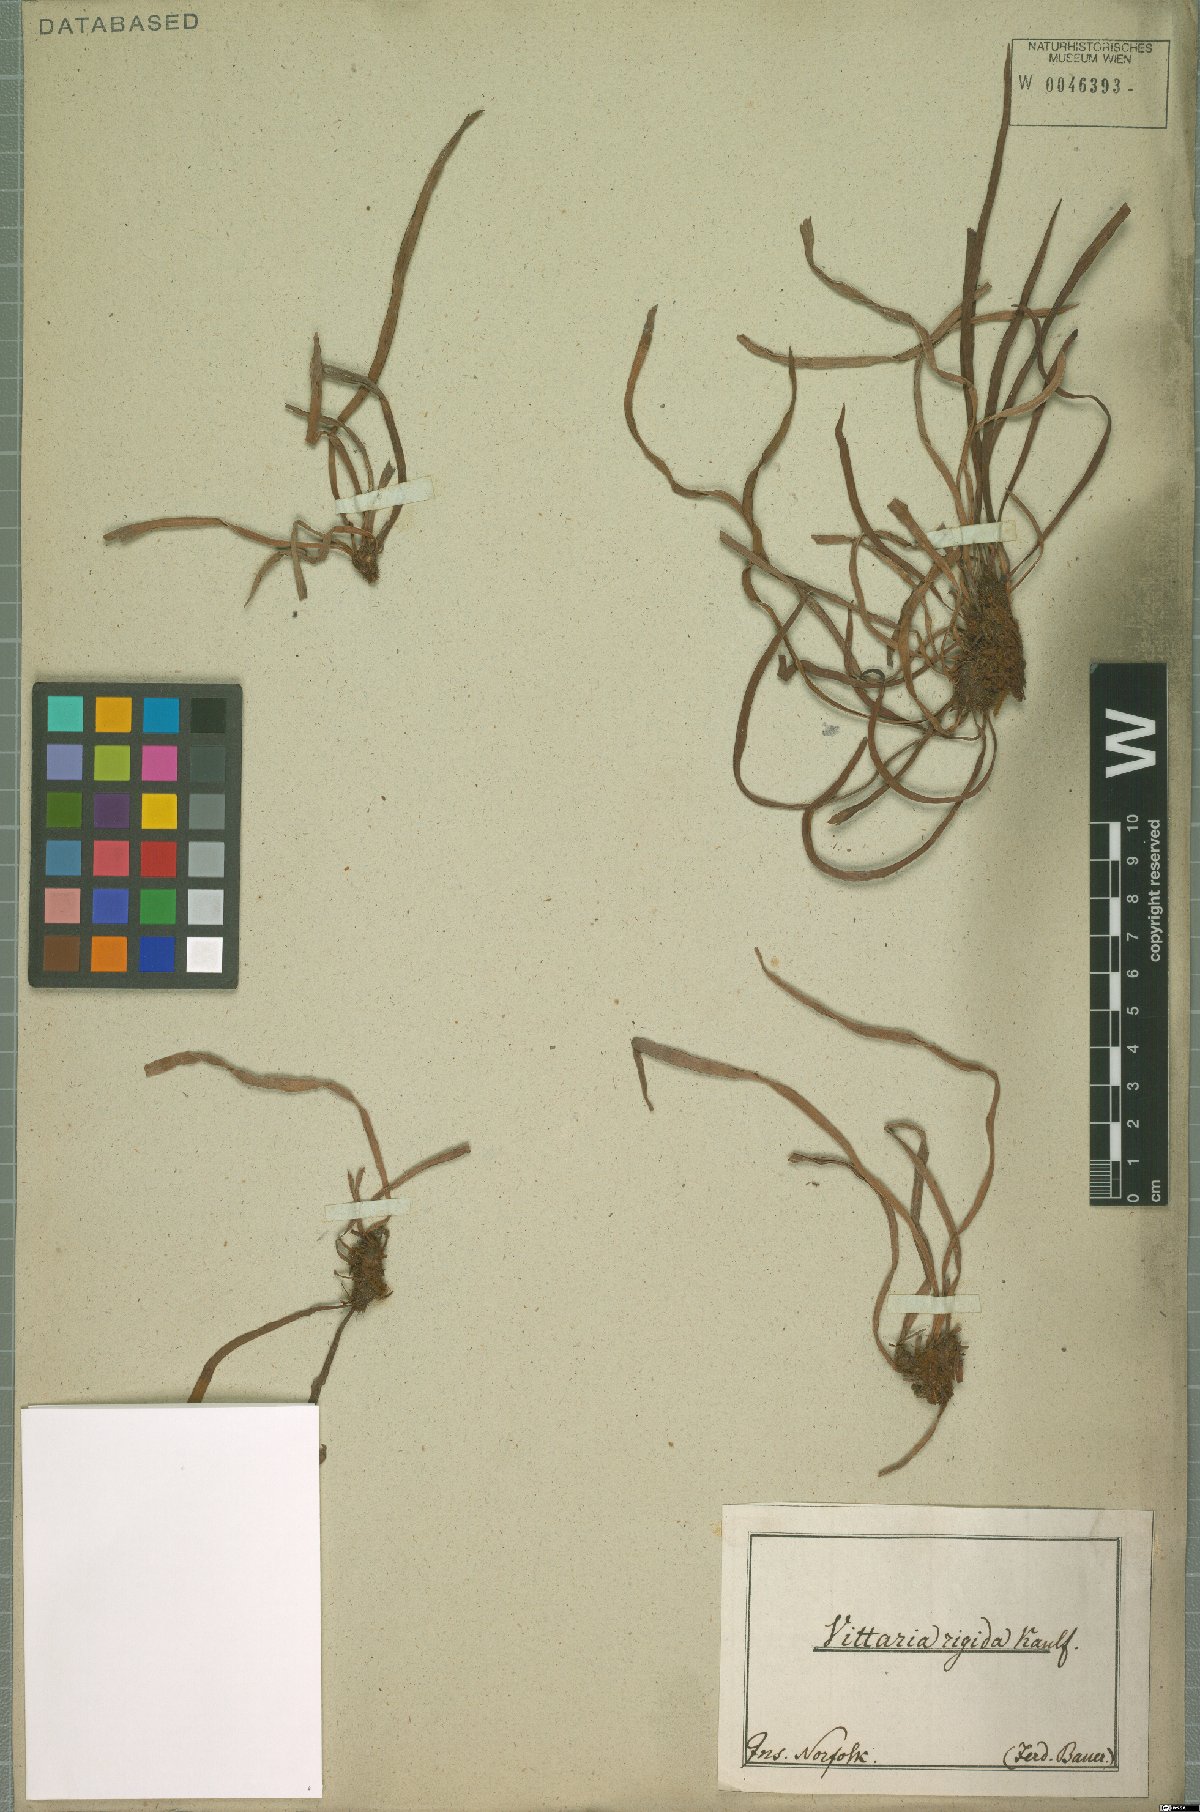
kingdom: Plantae
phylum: Tracheophyta
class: Polypodiopsida
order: Polypodiales
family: Pteridaceae
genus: Haplopteris
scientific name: Haplopteris elongata
